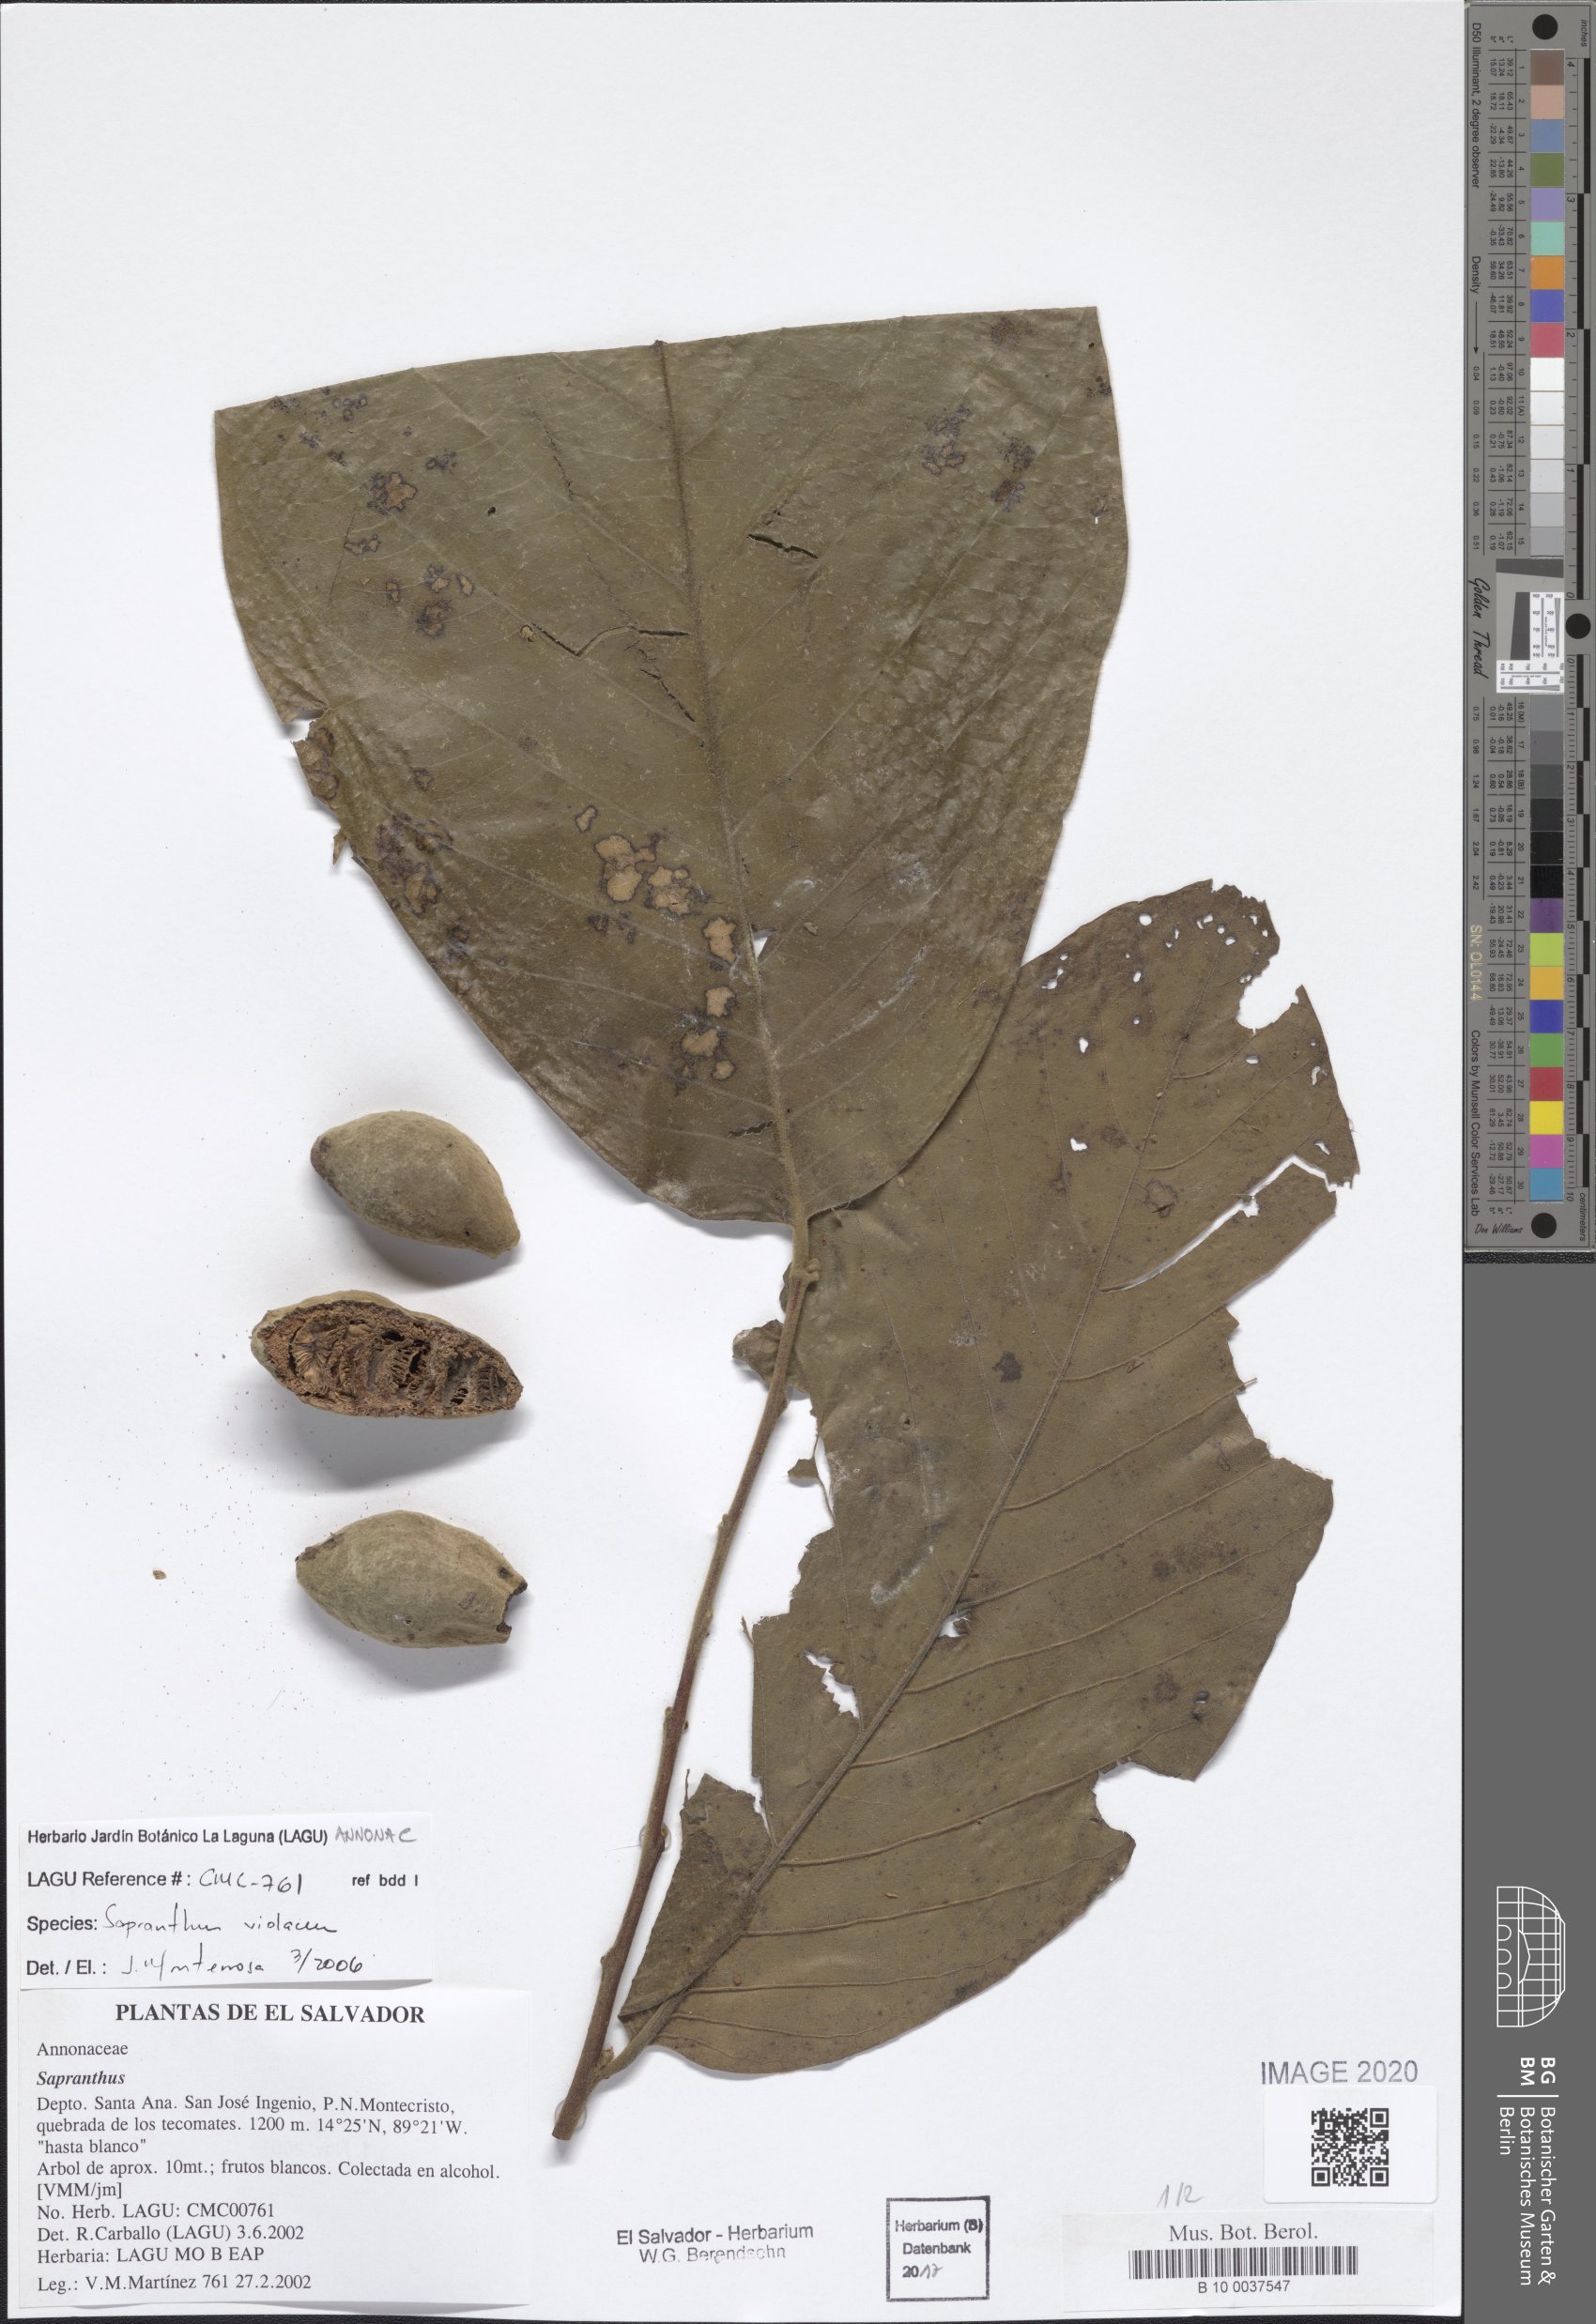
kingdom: Plantae
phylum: Tracheophyta
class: Magnoliopsida
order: Magnoliales
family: Annonaceae
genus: Sapranthus
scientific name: Sapranthus violaceus
